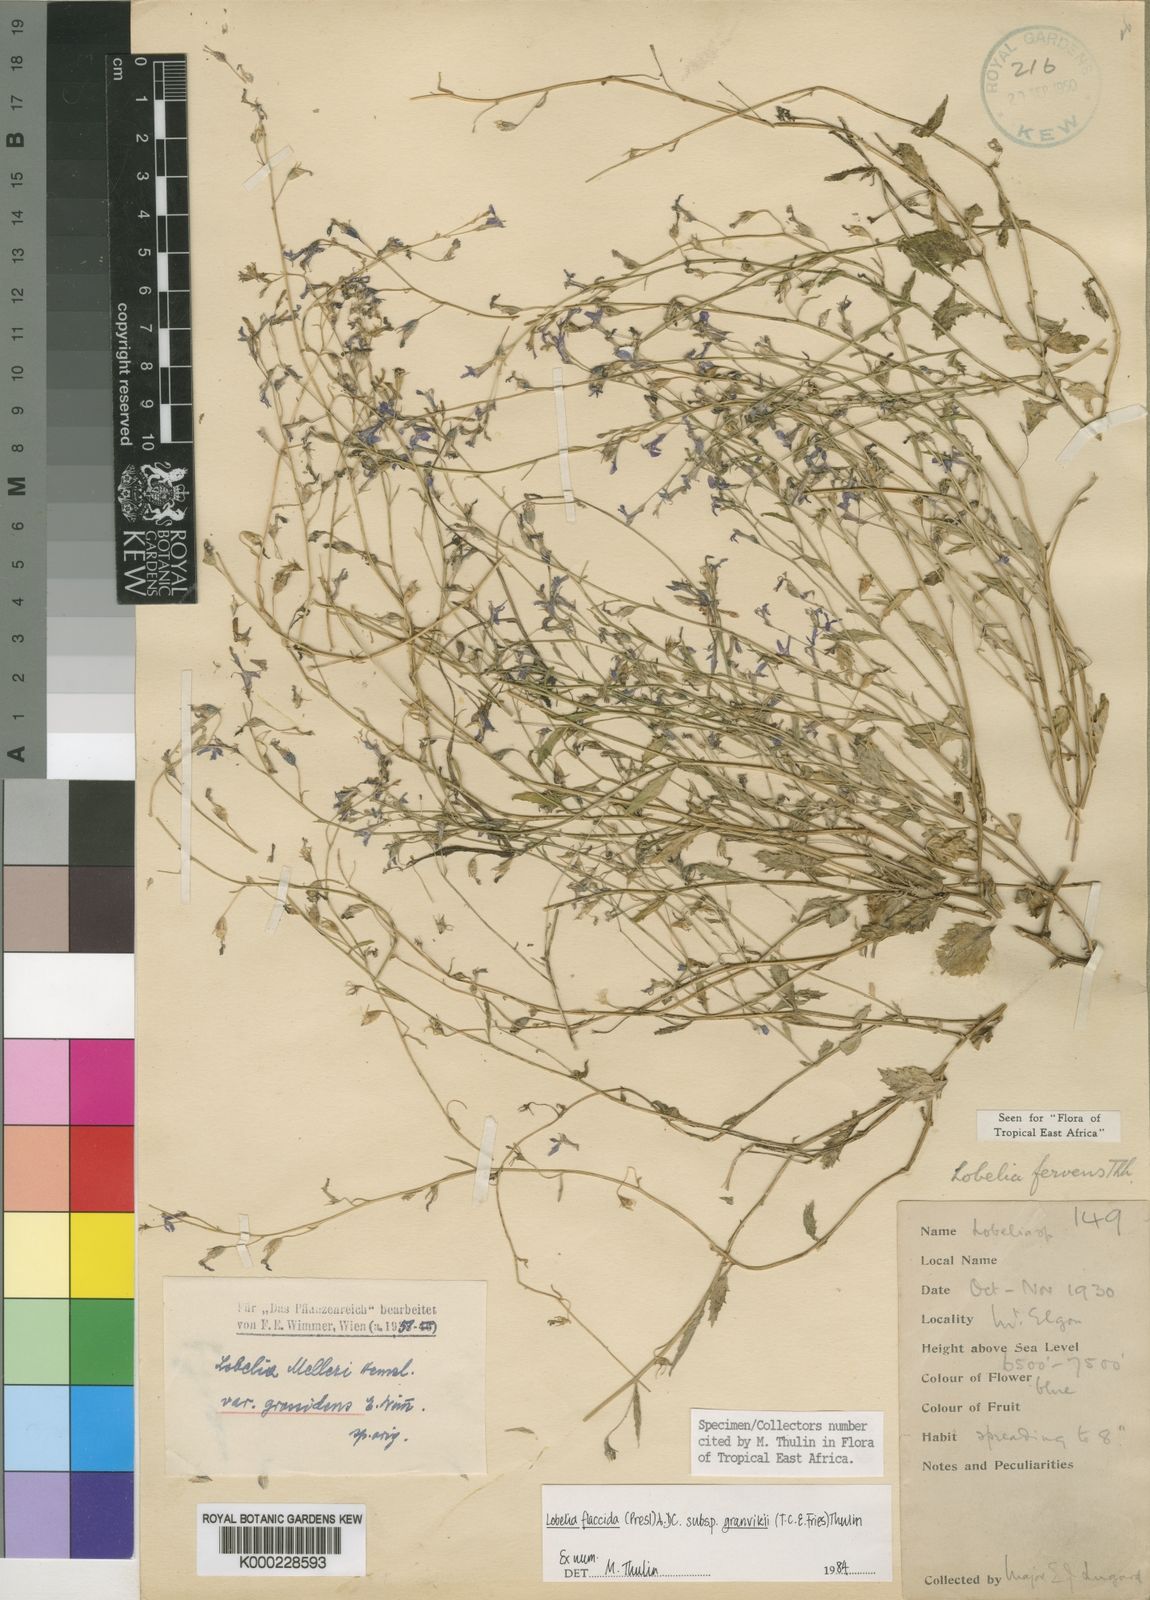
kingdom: Plantae
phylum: Tracheophyta
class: Magnoliopsida
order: Asterales
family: Campanulaceae
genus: Lobelia
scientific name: Lobelia flaccida
